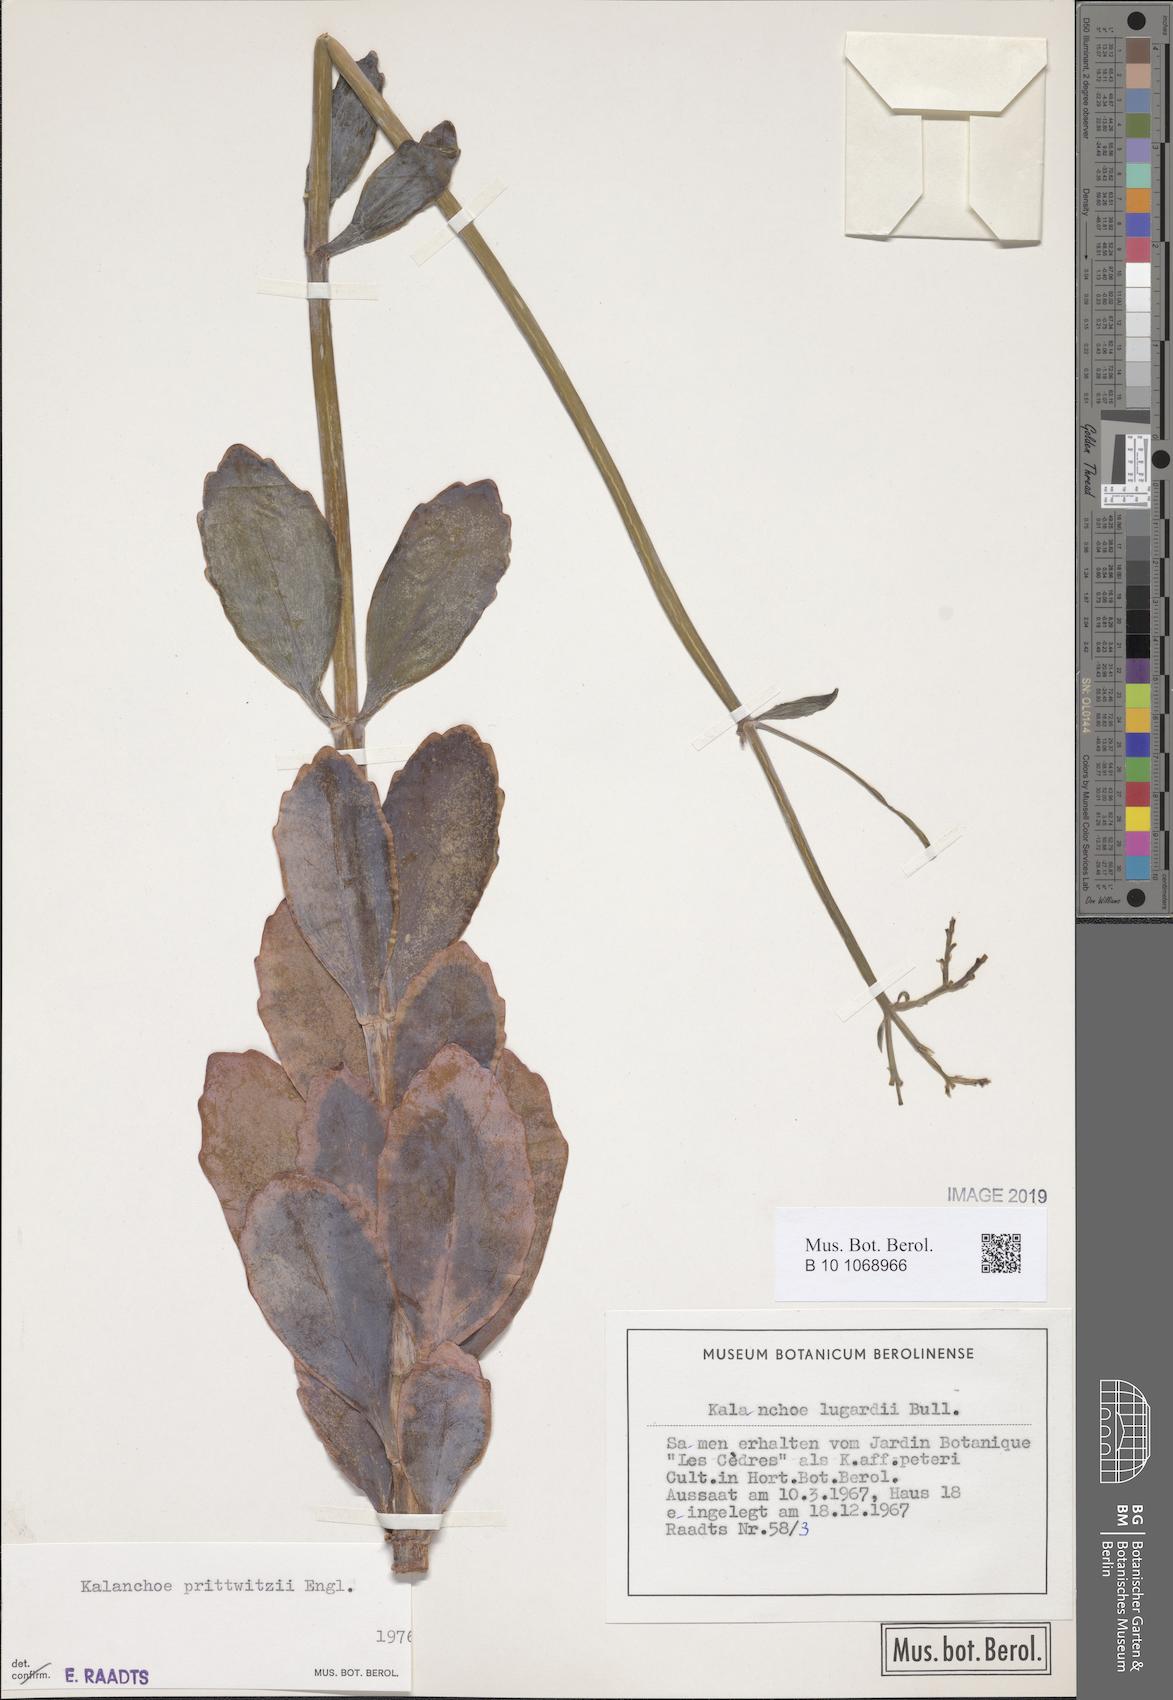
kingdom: Plantae
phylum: Tracheophyta
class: Magnoliopsida
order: Saxifragales
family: Crassulaceae
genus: Kalanchoe
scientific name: Kalanchoe prittwitzii
